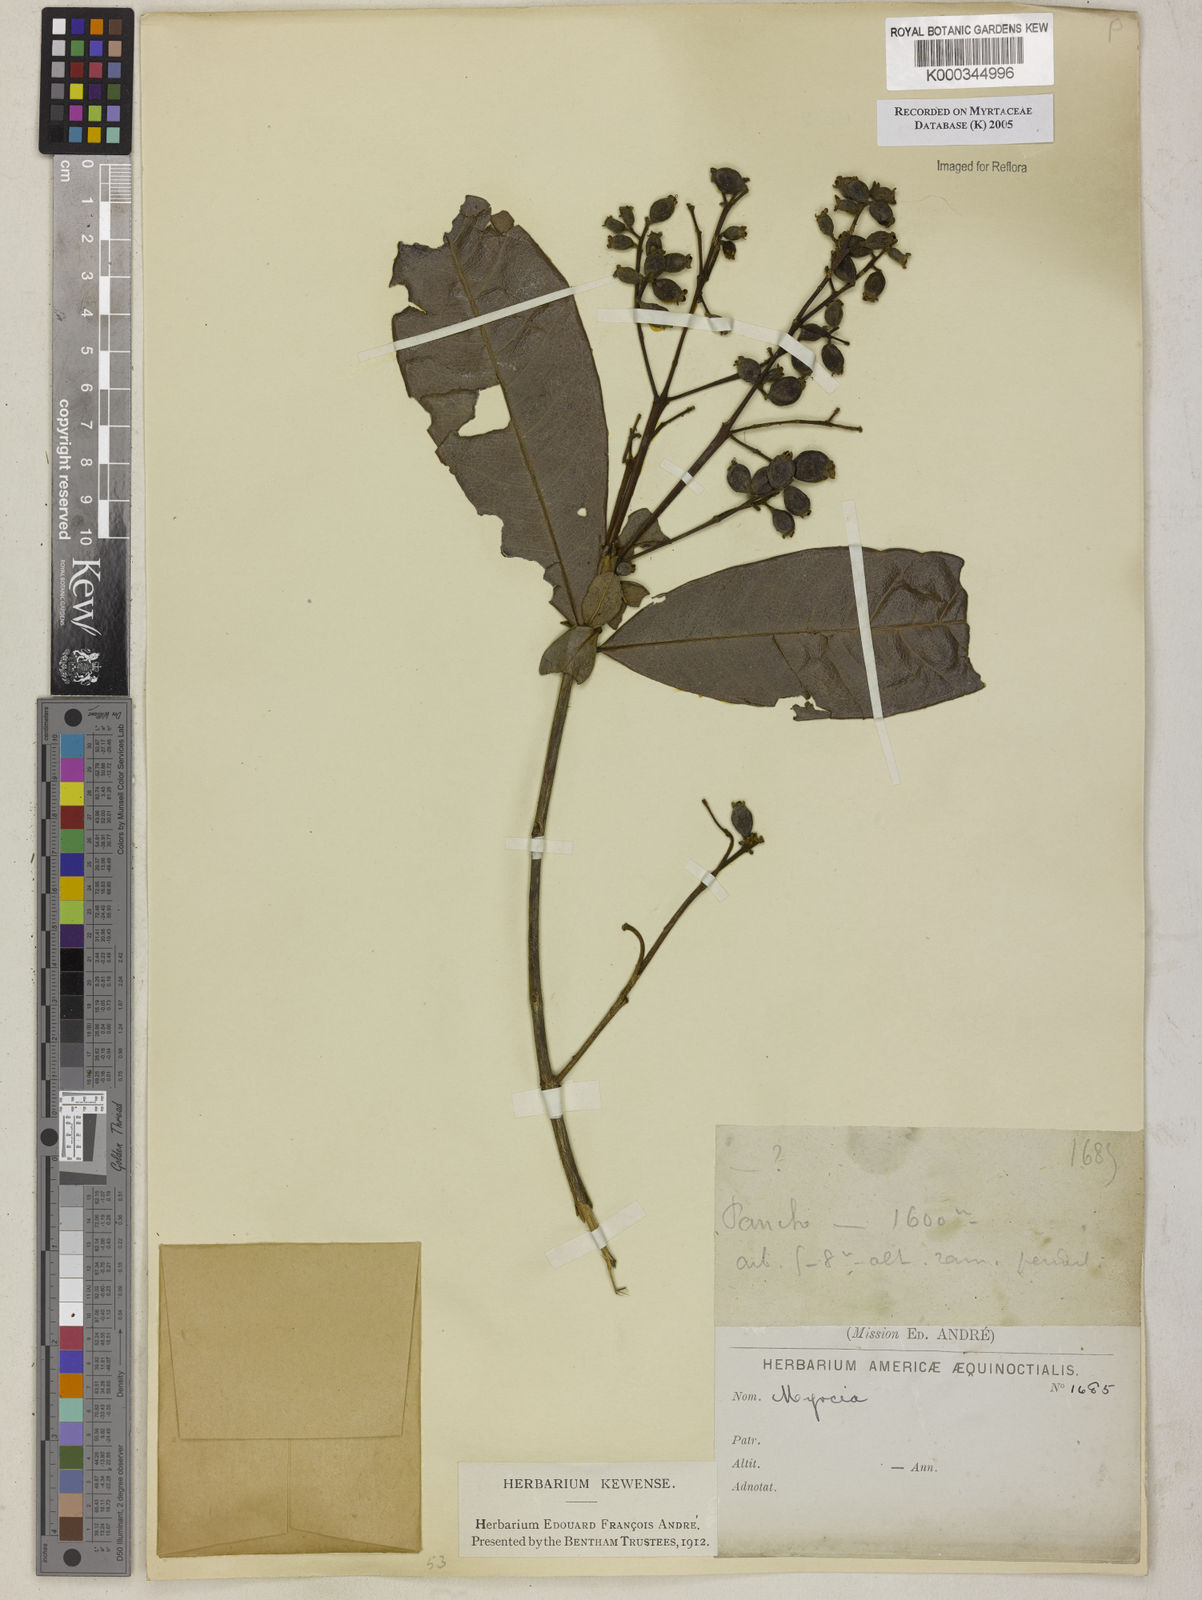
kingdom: Plantae
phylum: Tracheophyta
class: Magnoliopsida
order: Myrtales
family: Myrtaceae
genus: Myrcia
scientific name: Myrcia
